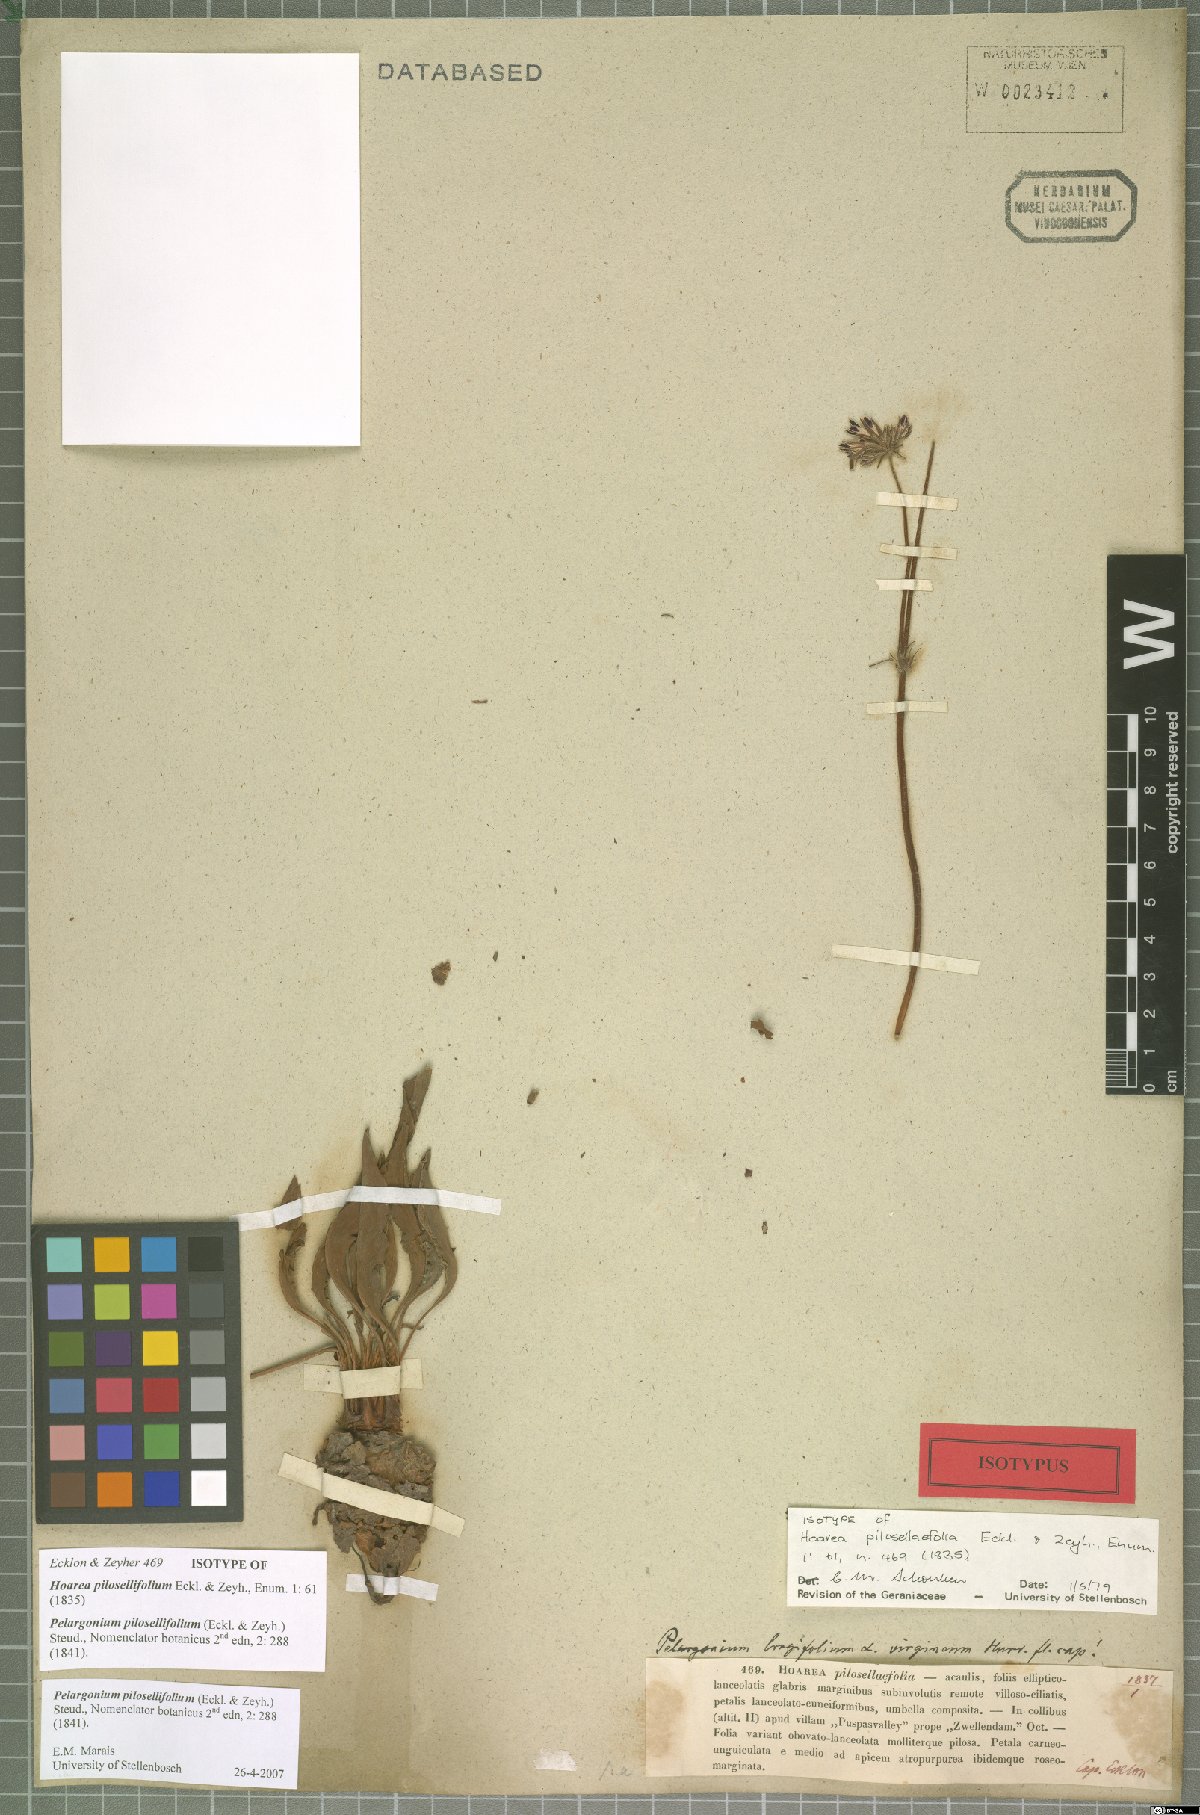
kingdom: Plantae
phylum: Tracheophyta
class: Magnoliopsida
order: Geraniales
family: Geraniaceae
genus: Pelargonium
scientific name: Pelargonium pilosellifolium
